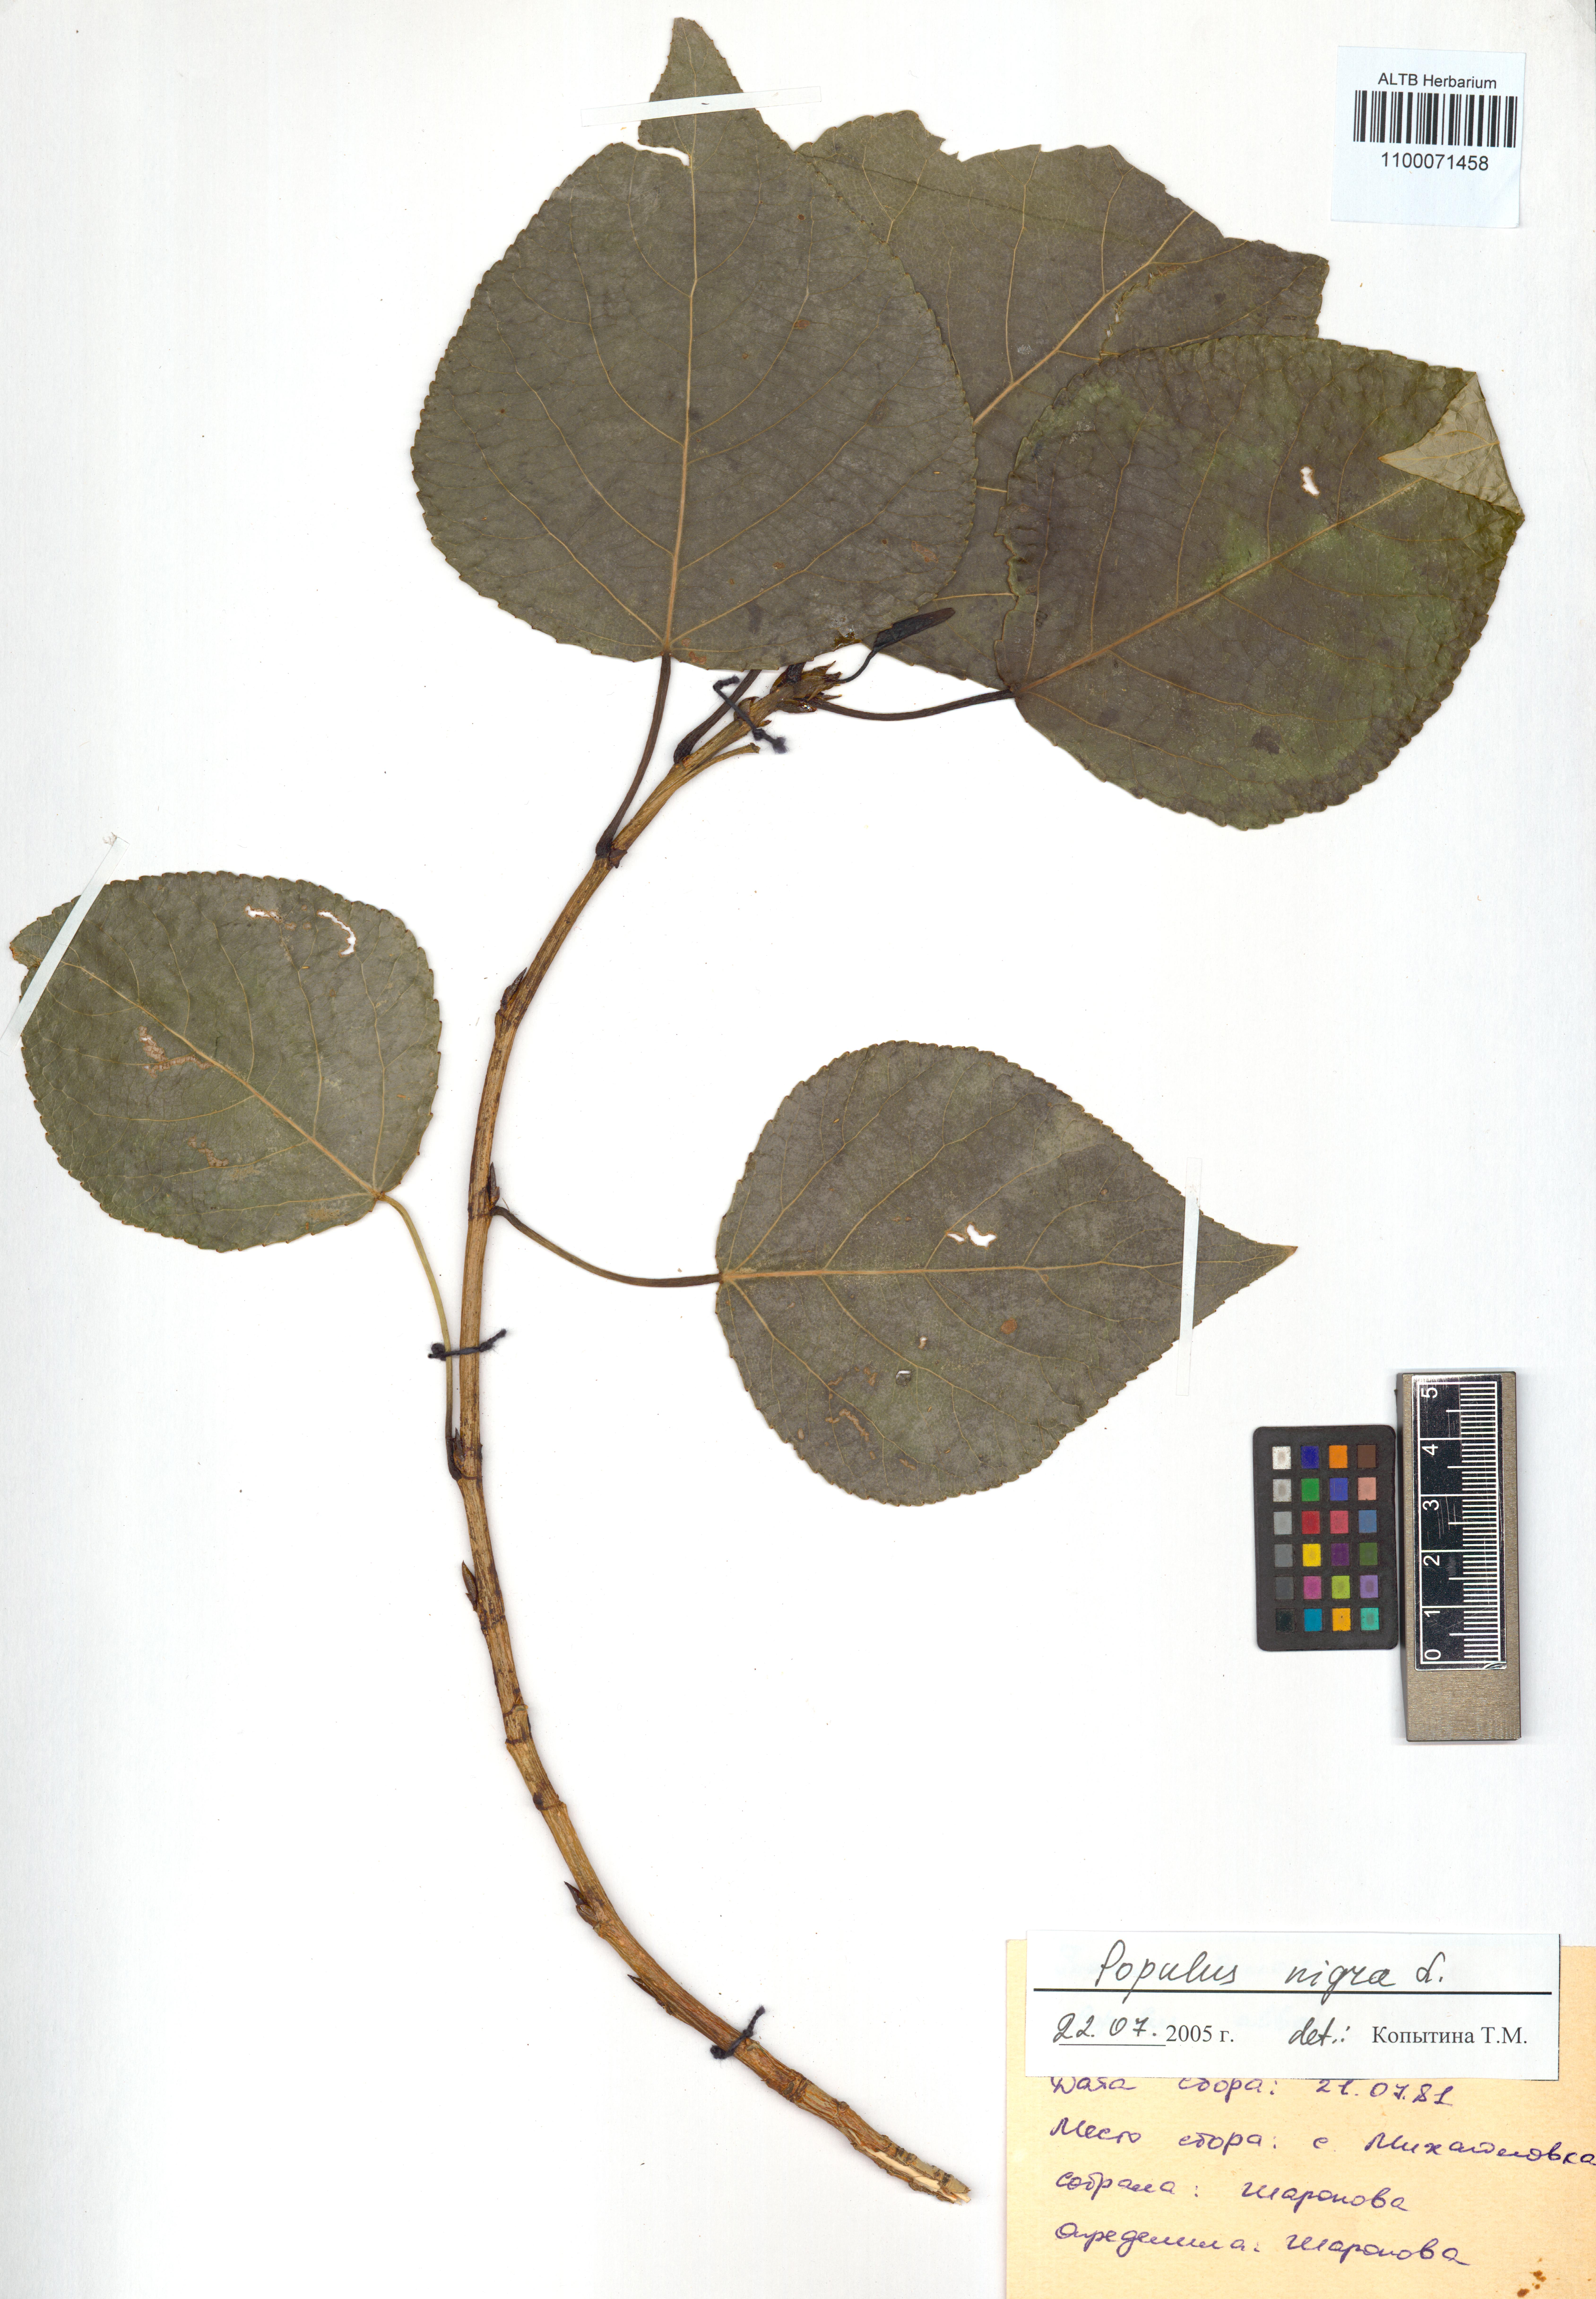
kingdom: Plantae
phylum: Tracheophyta
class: Magnoliopsida
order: Malpighiales
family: Salicaceae
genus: Populus
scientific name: Populus nigra
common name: Black poplar
